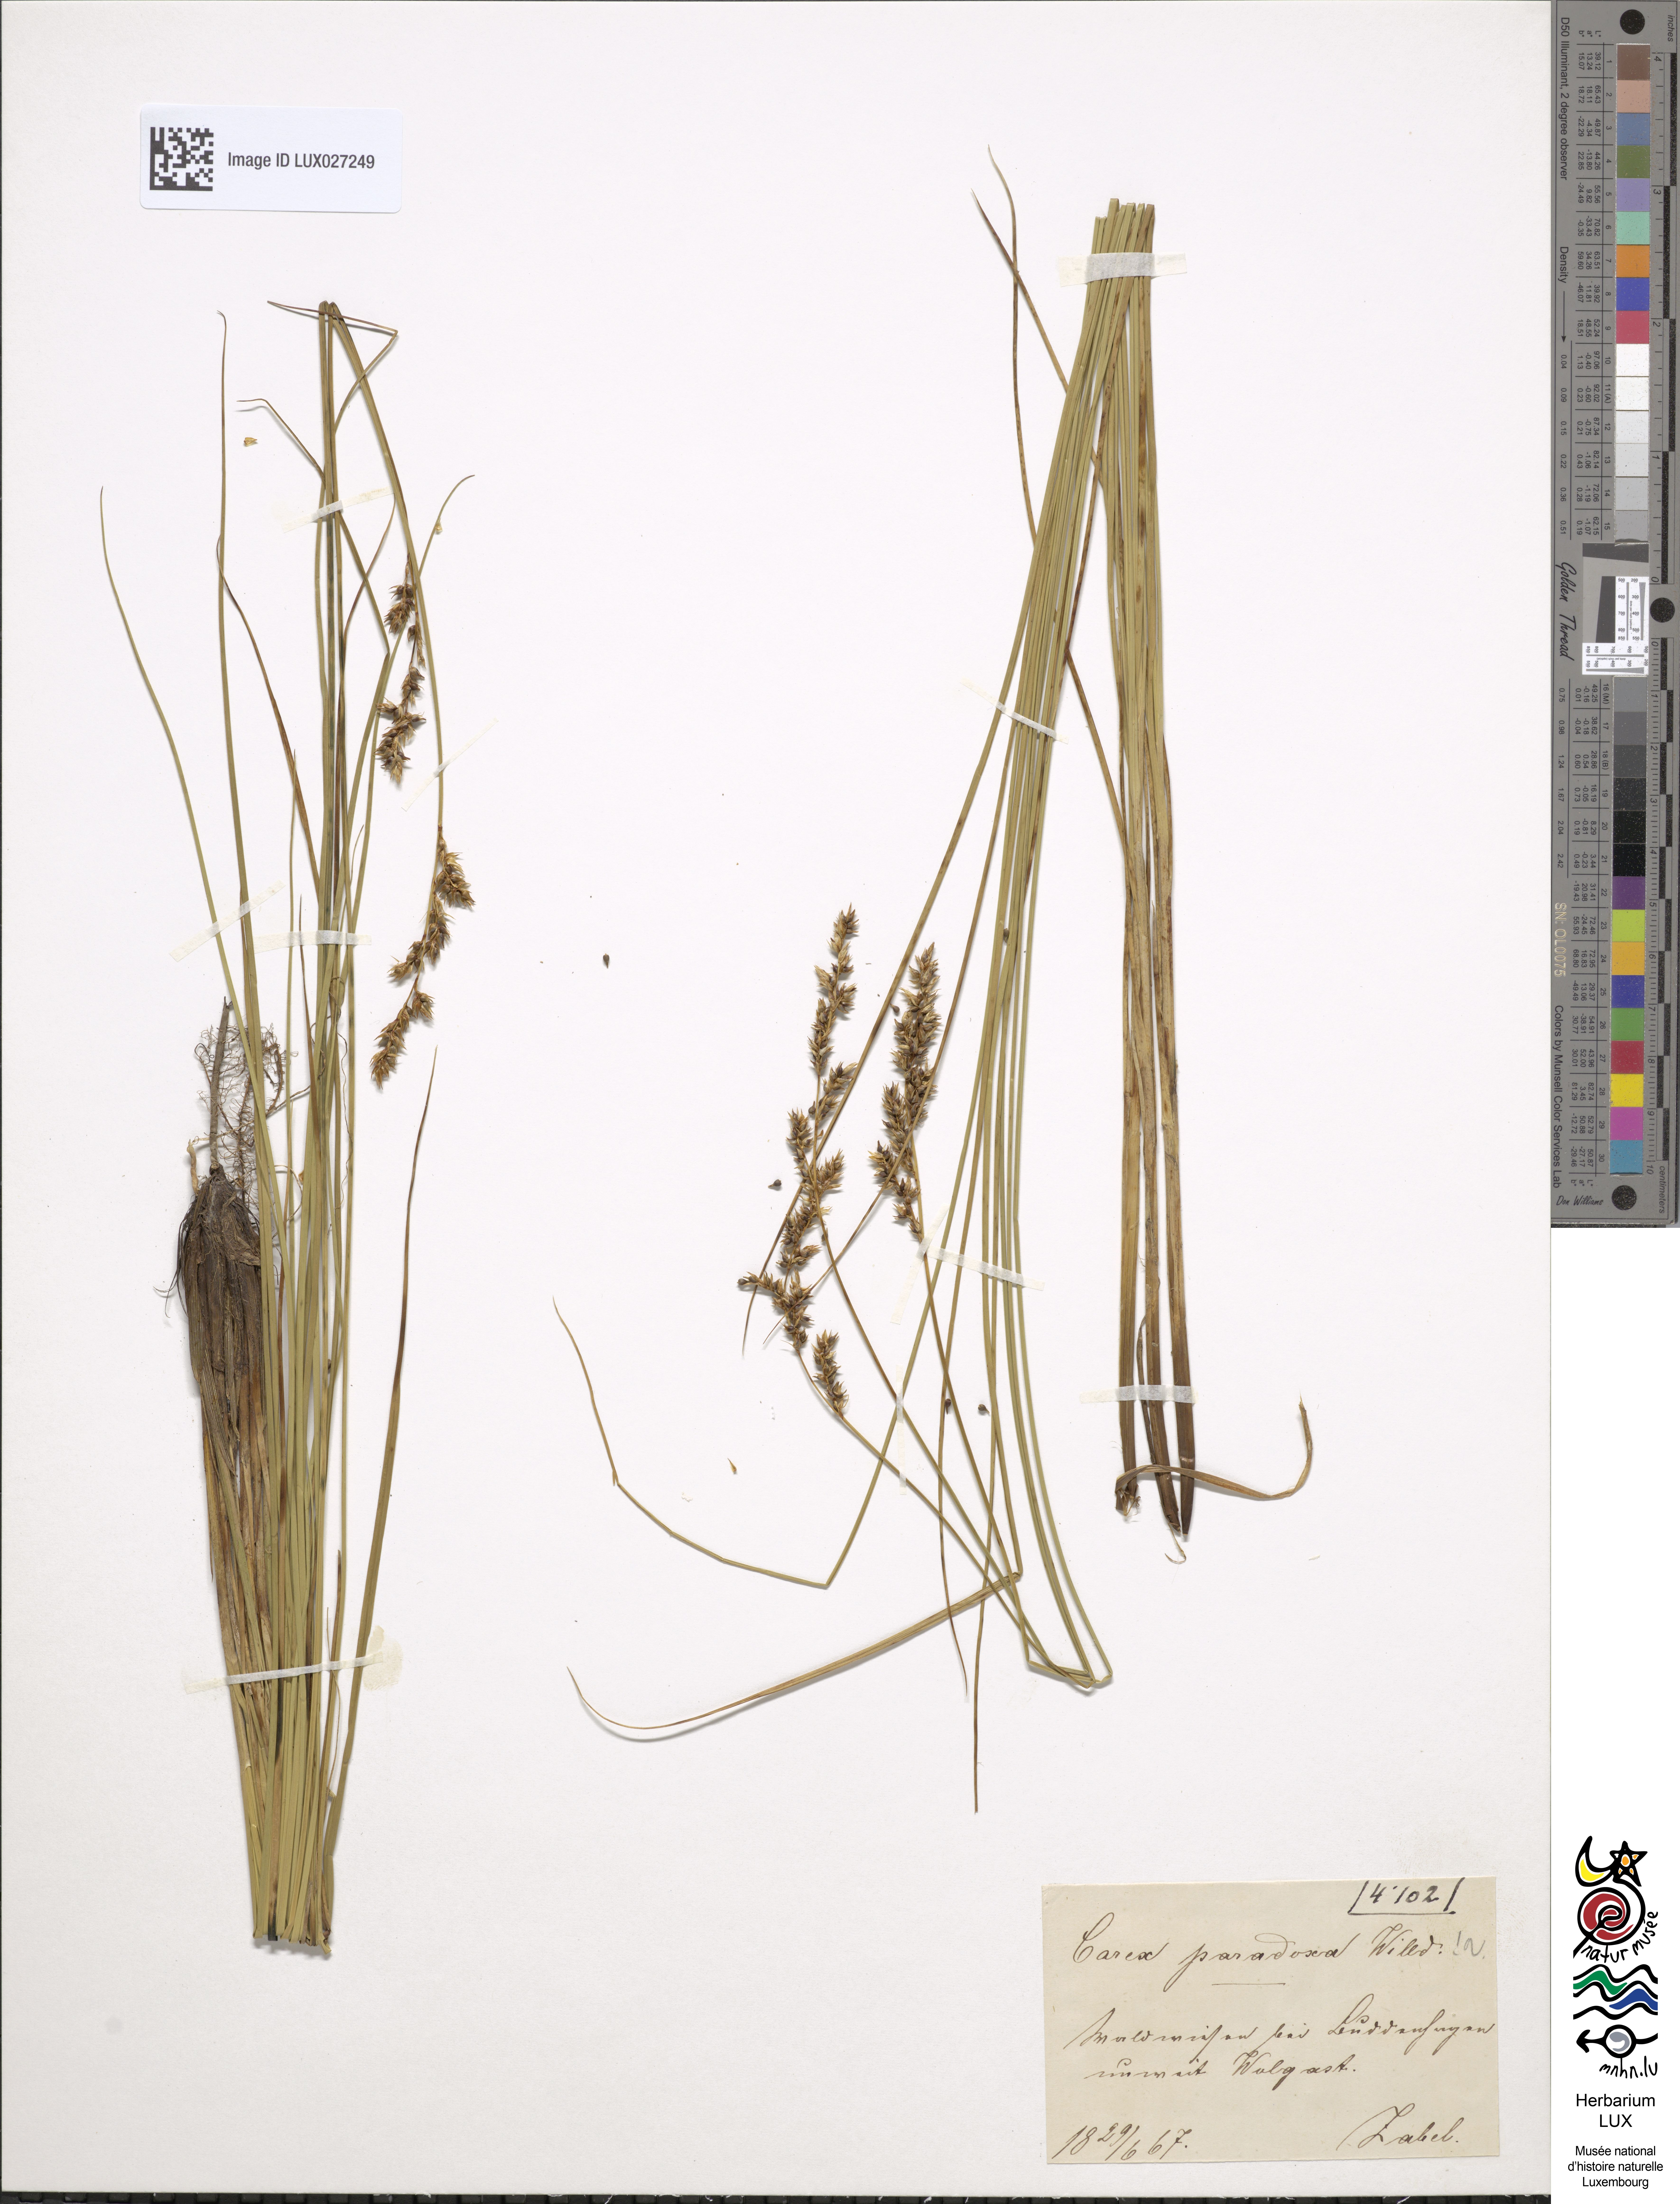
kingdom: Plantae
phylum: Tracheophyta
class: Liliopsida
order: Poales
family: Cyperaceae
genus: Carex
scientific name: Carex appropinquata
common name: Fibrous tussock-sedge
